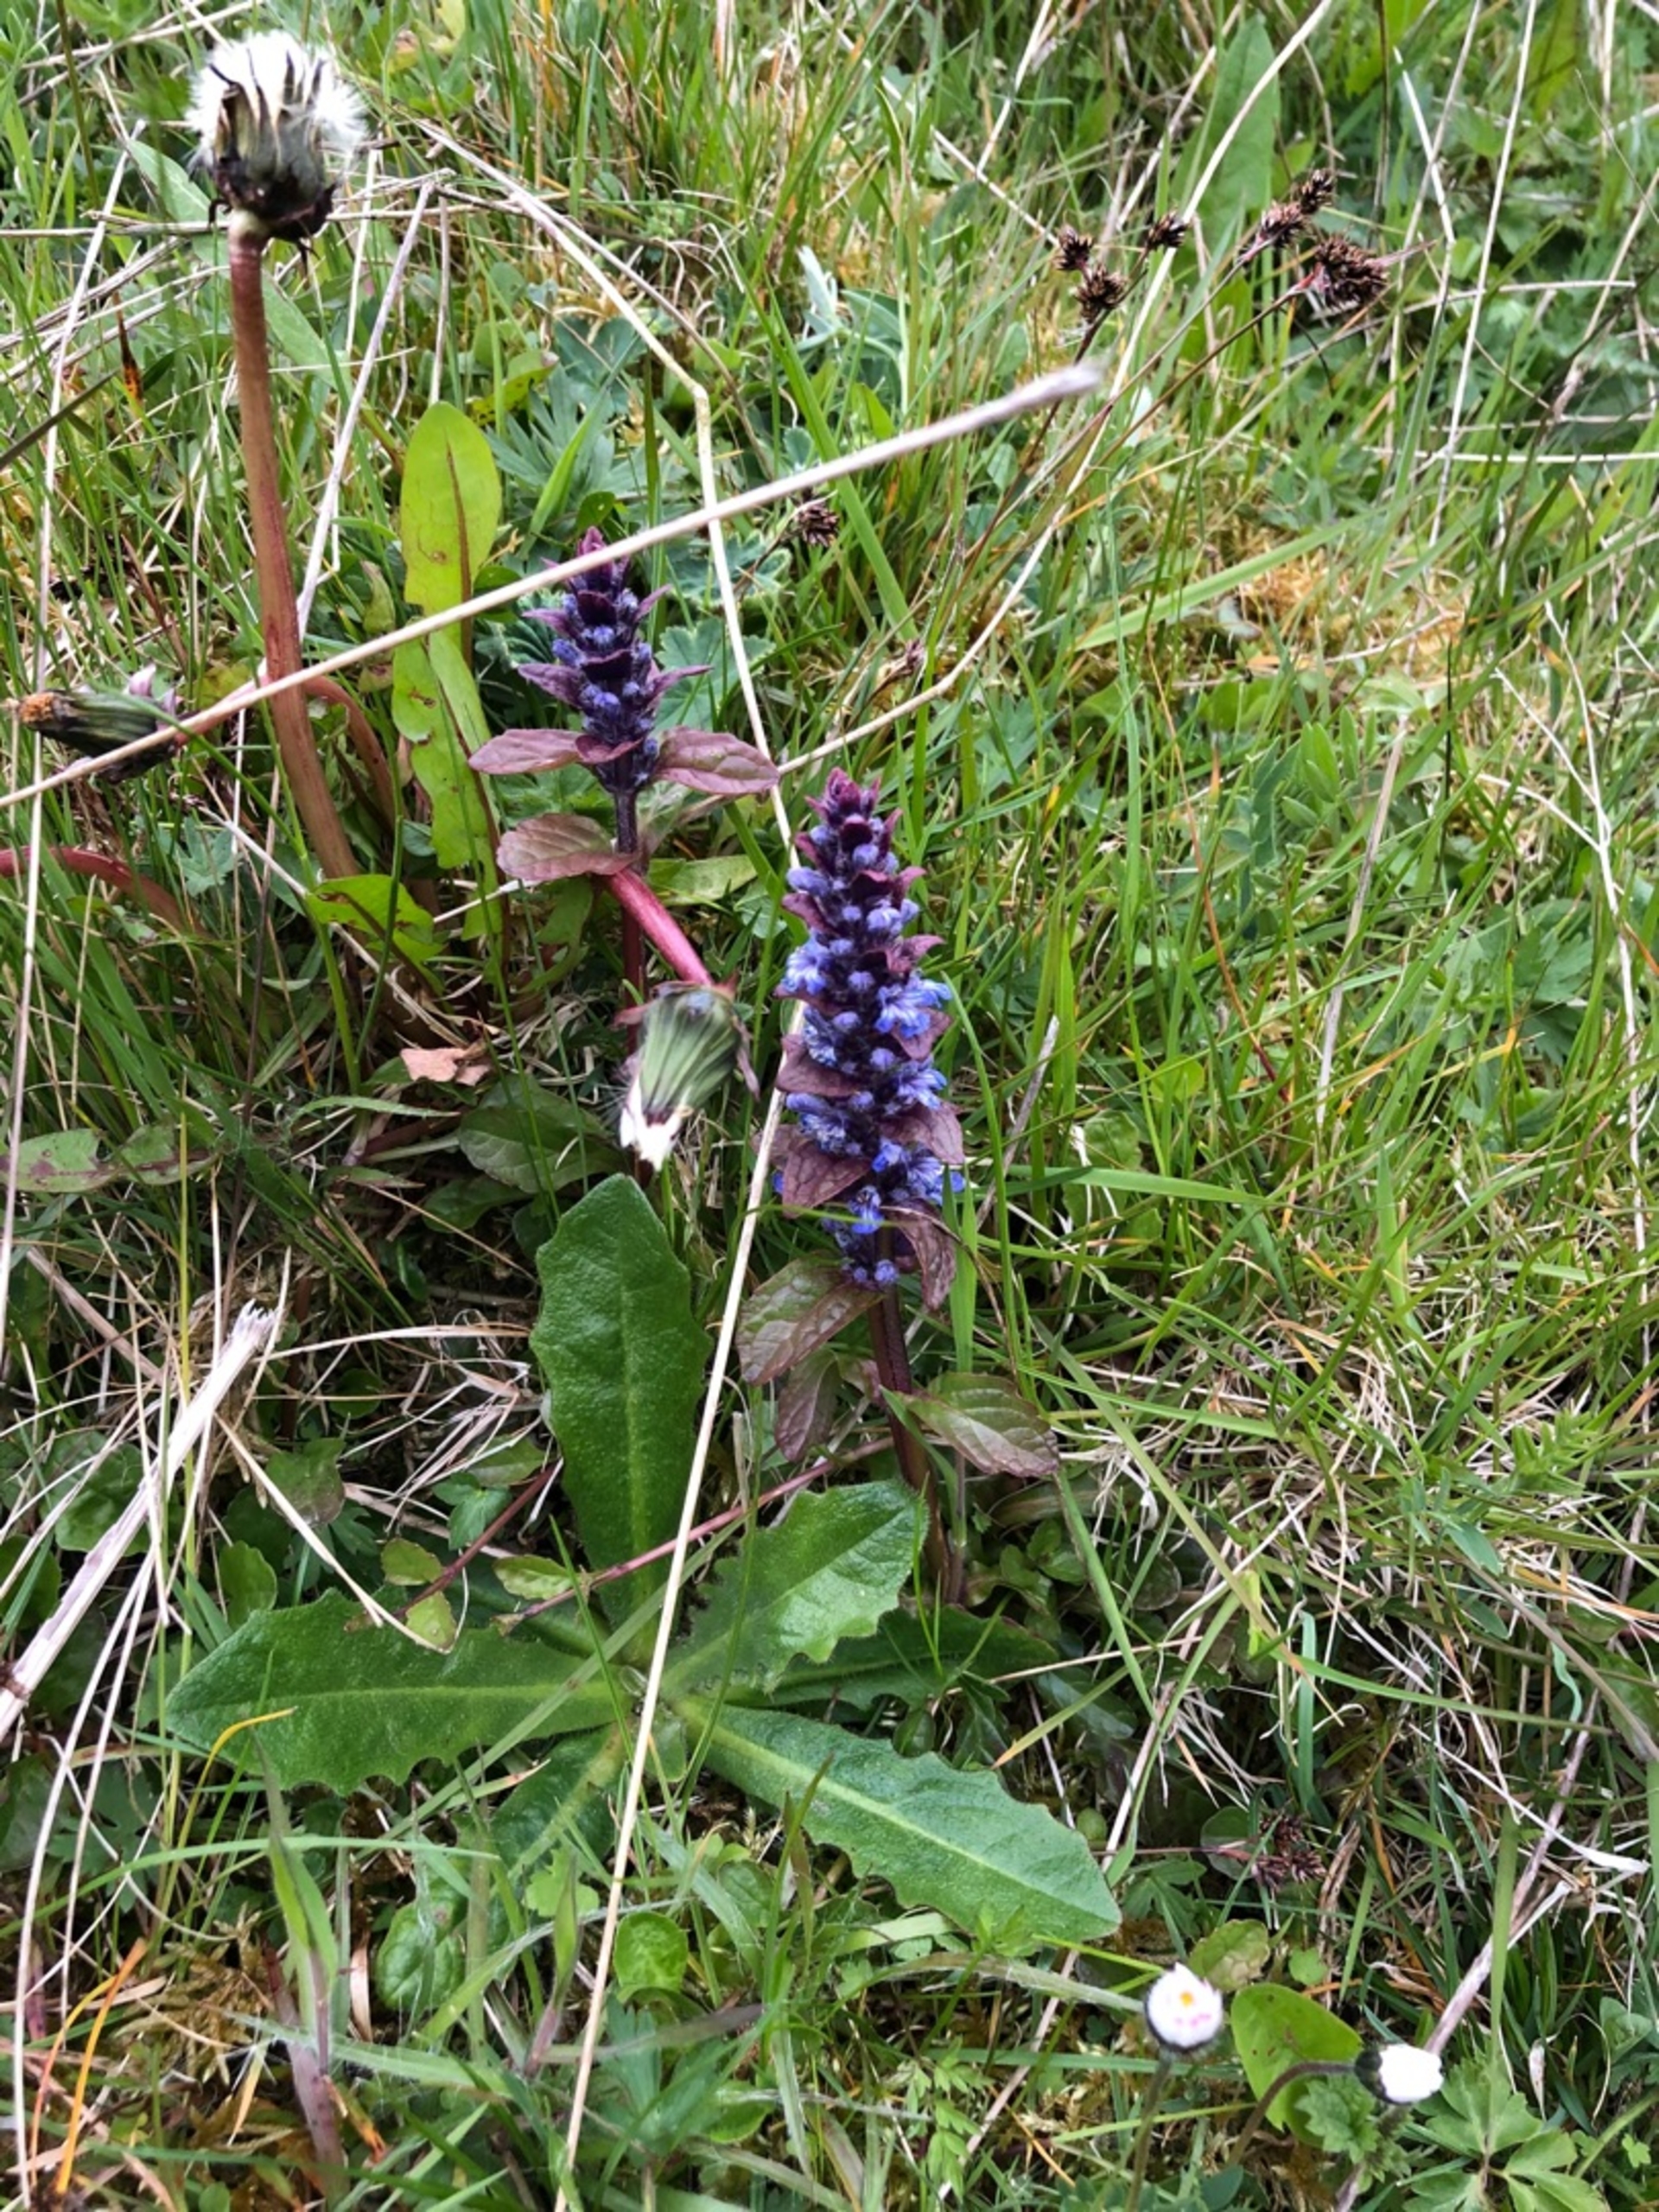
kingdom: Plantae
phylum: Tracheophyta
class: Magnoliopsida
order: Lamiales
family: Lamiaceae
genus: Ajuga
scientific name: Ajuga reptans
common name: Krybende læbeløs
